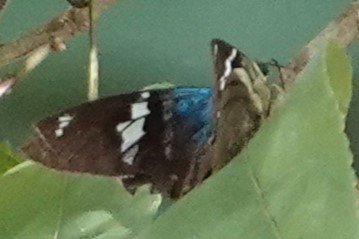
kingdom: Animalia
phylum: Arthropoda
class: Insecta
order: Lepidoptera
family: Hesperiidae
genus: Astraptes
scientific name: Astraptes fulgerator
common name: Two-barred Flasher
